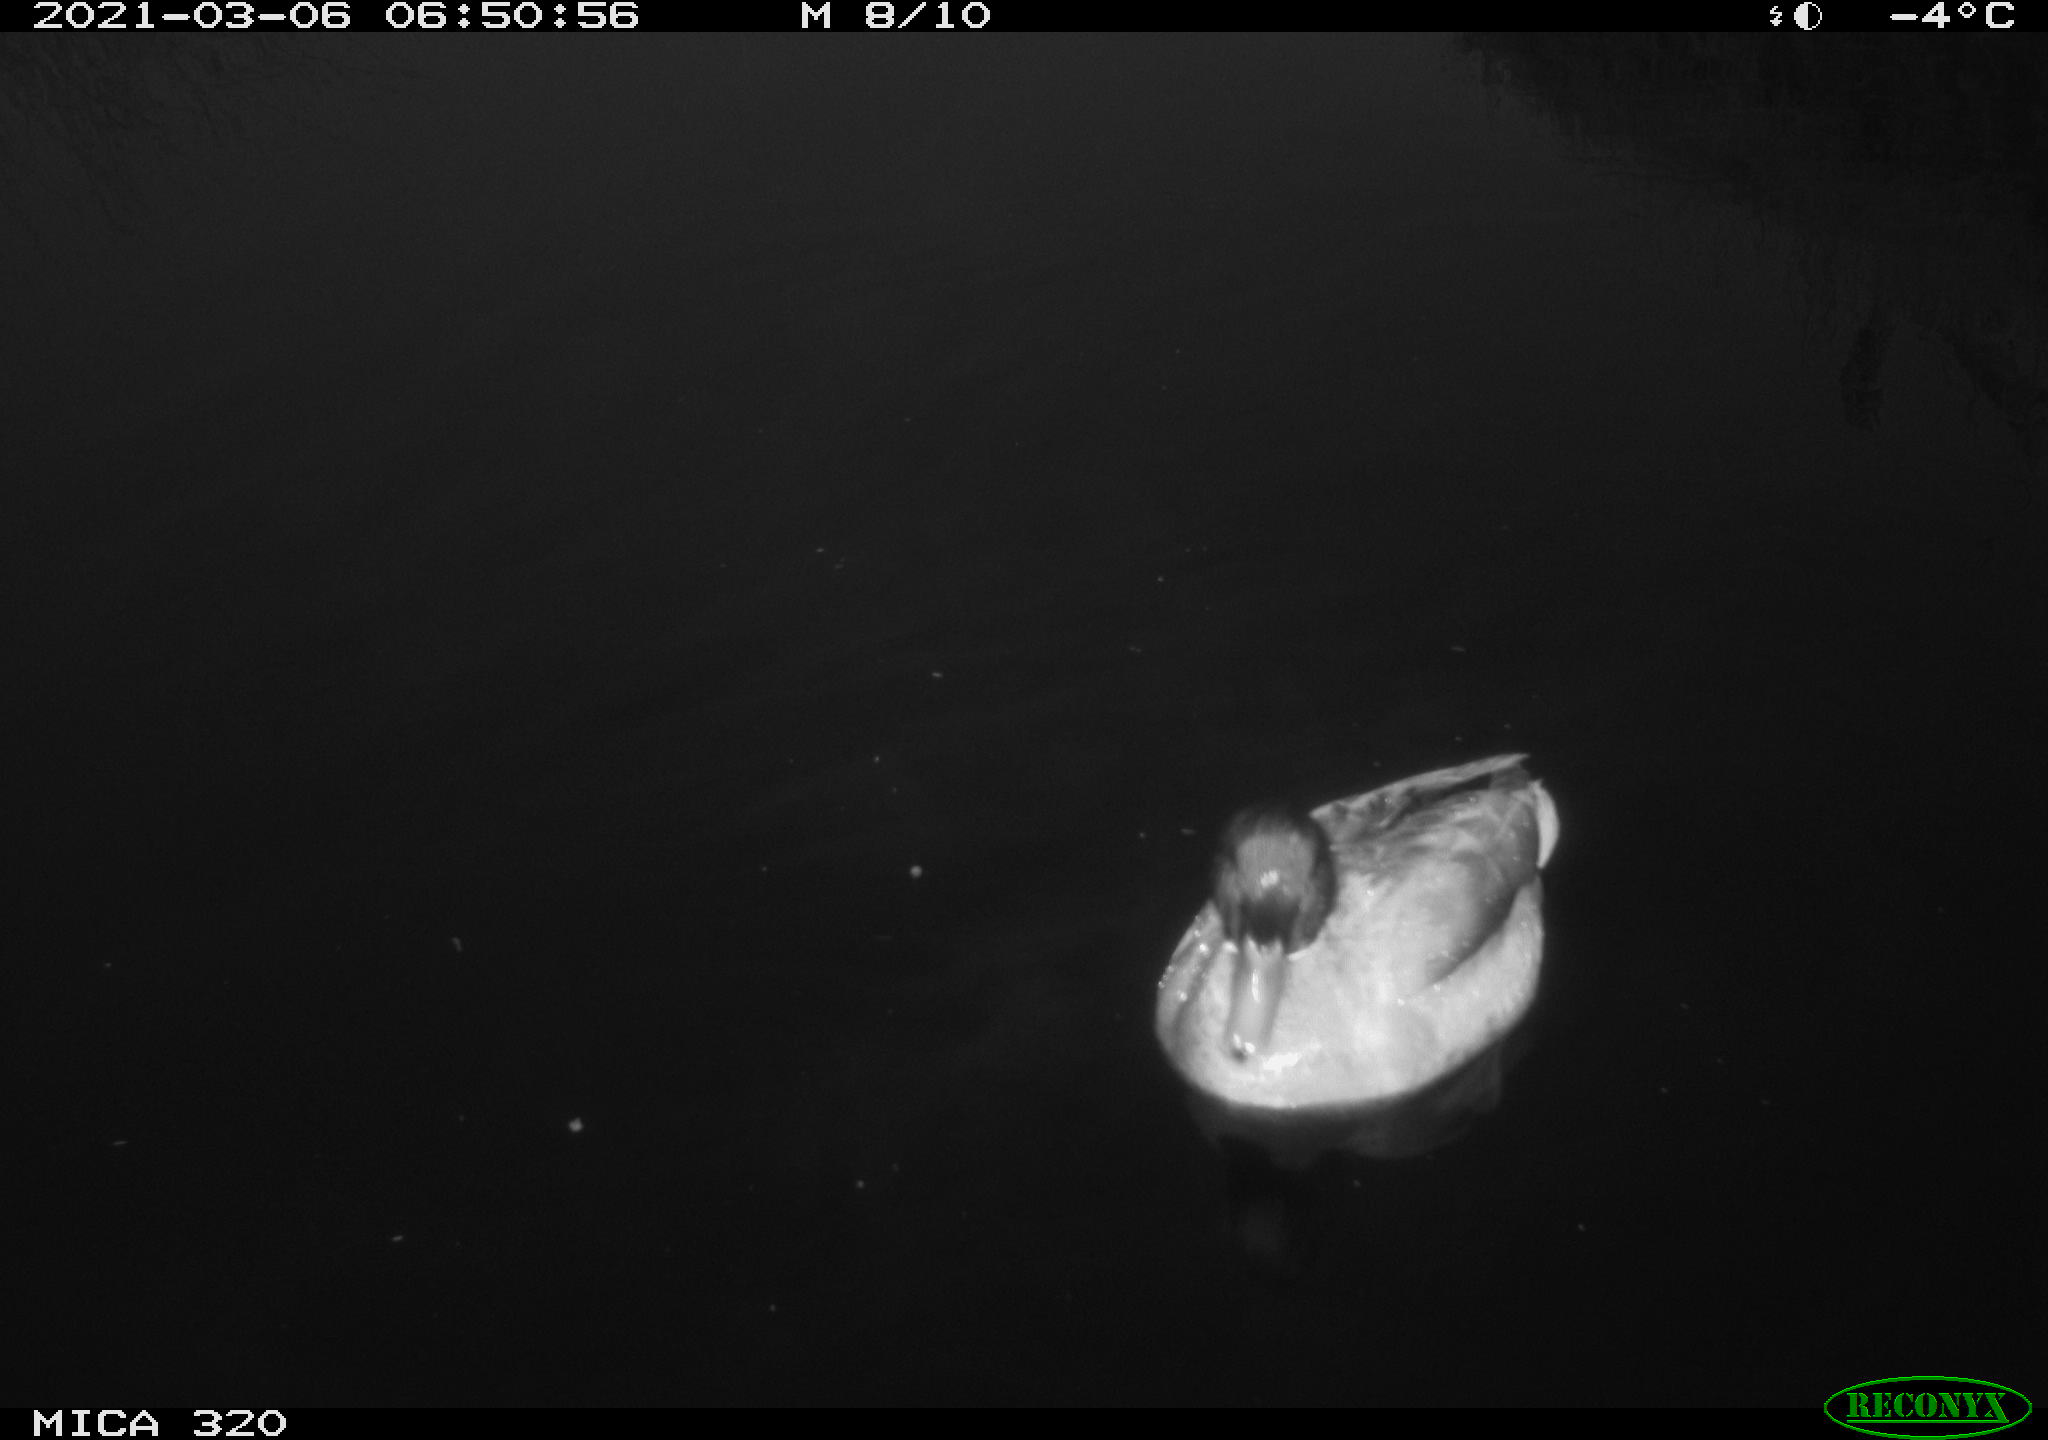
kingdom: Animalia
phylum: Chordata
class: Aves
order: Anseriformes
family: Anatidae
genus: Anas
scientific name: Anas platyrhynchos
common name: Mallard
